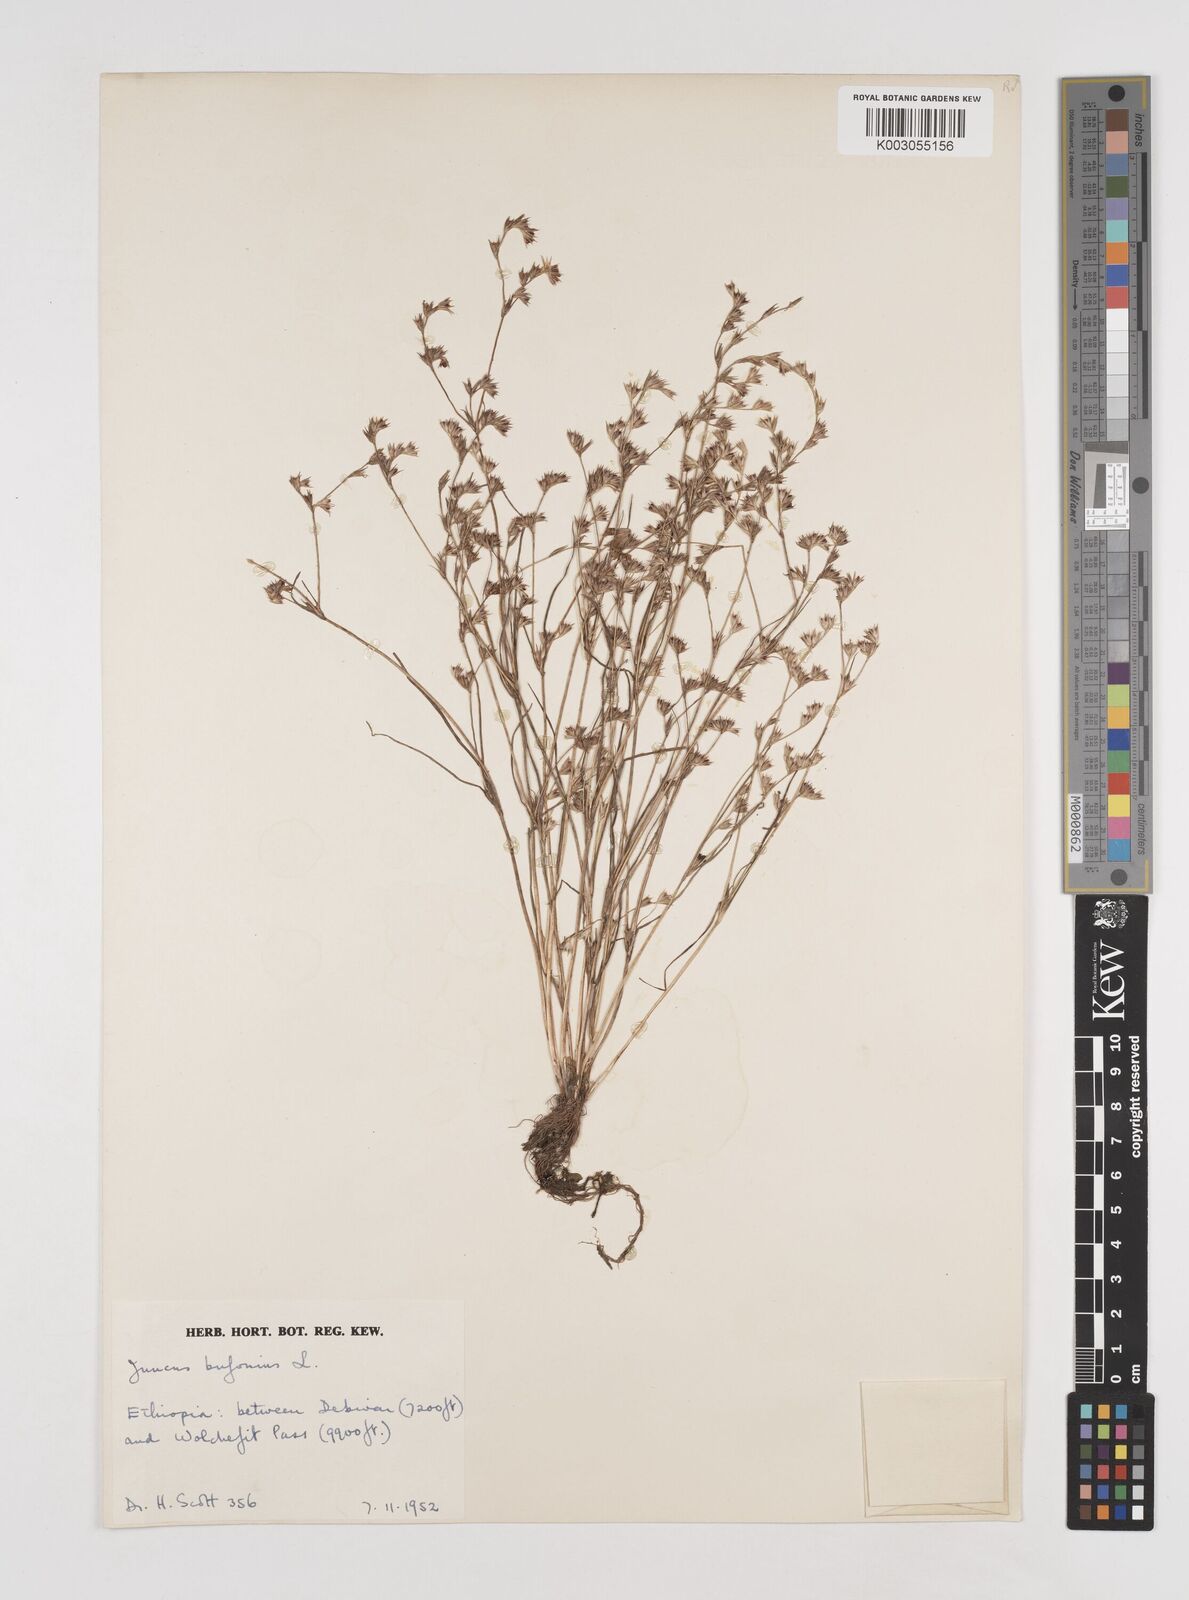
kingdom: Plantae
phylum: Tracheophyta
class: Liliopsida
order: Poales
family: Juncaceae
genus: Juncus
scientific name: Juncus bufonius
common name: Toad rush
